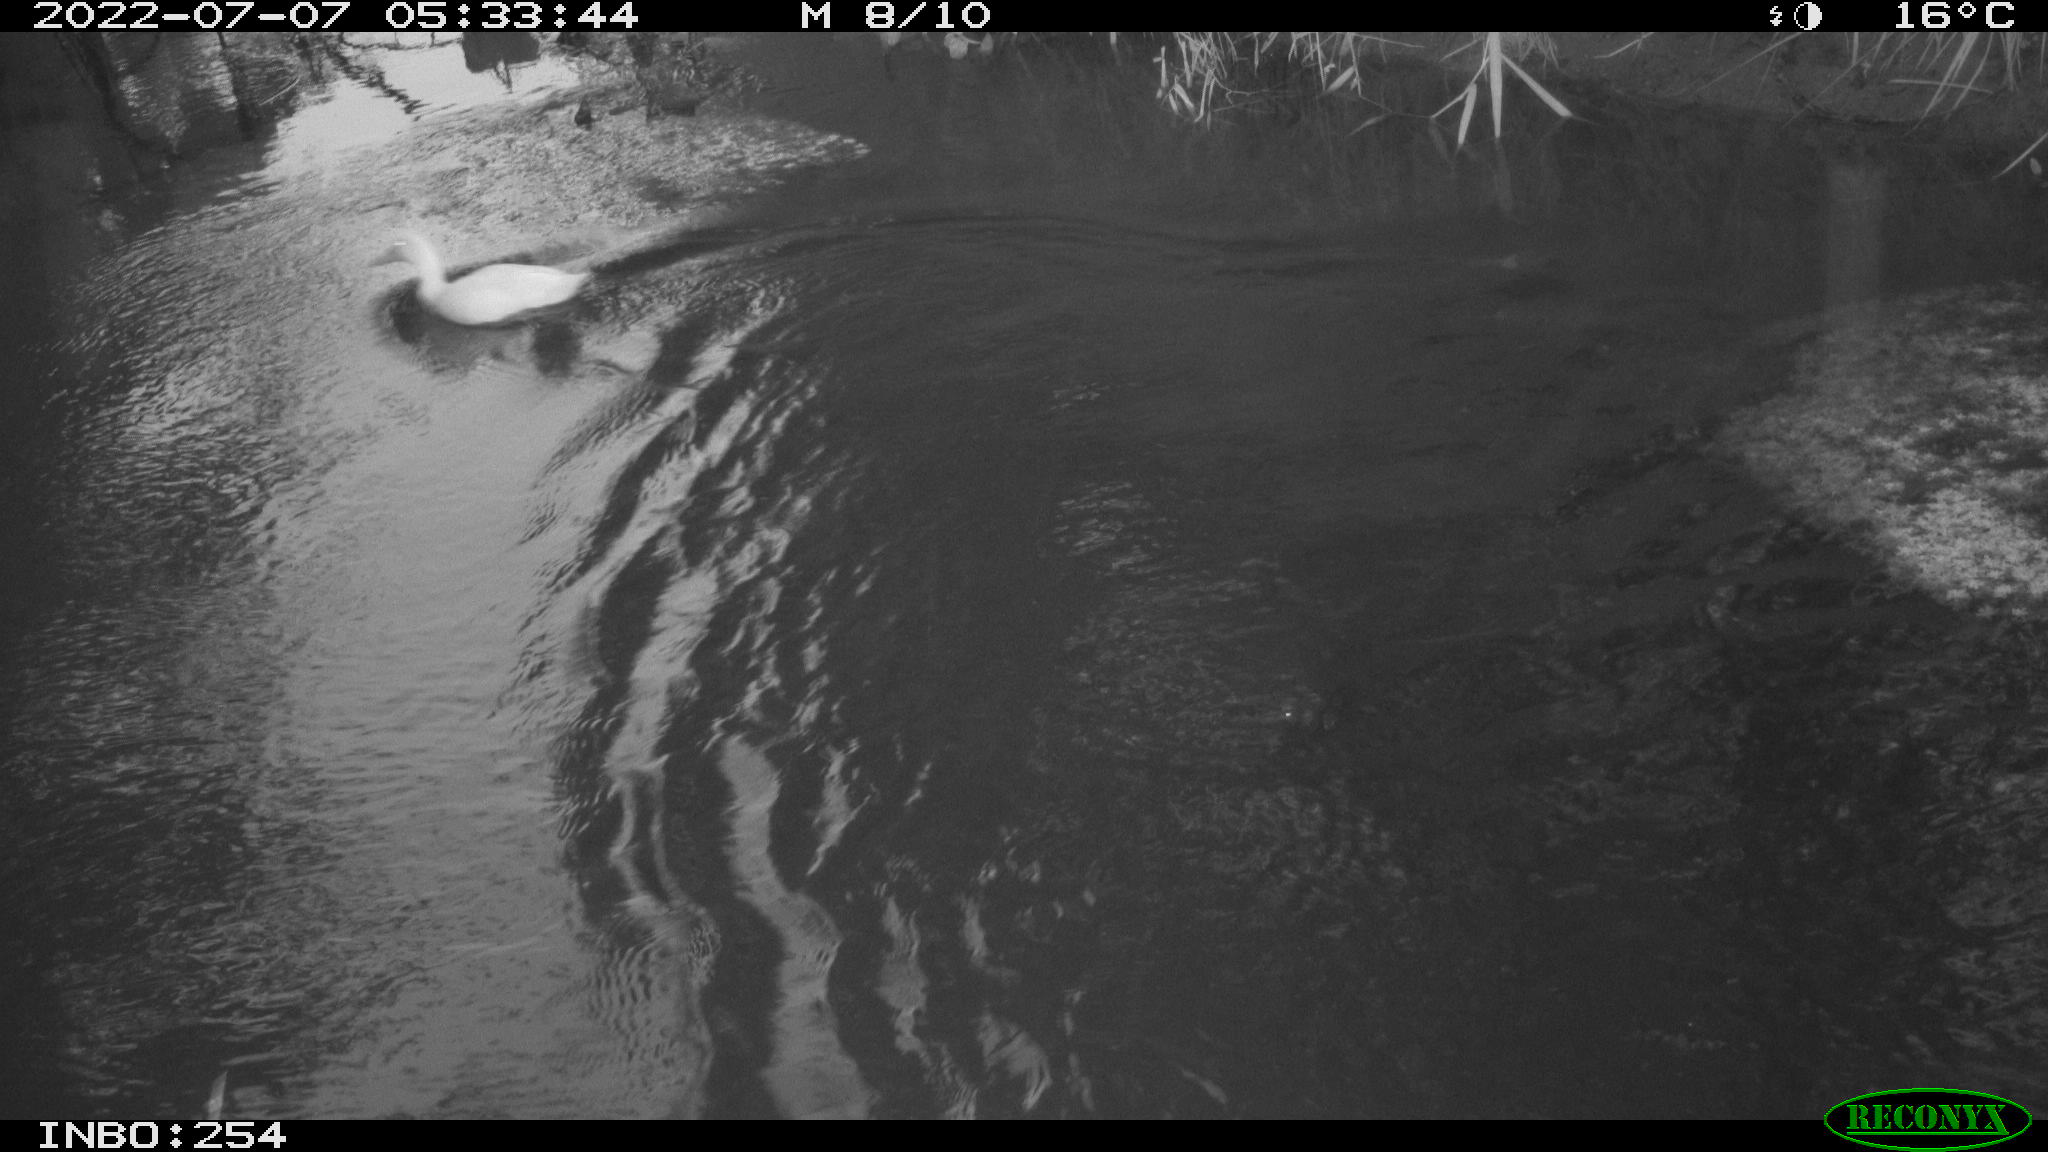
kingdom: Animalia
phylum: Chordata
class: Aves
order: Anseriformes
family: Anatidae
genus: Anas
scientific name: Anas platyrhynchos
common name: Mallard
